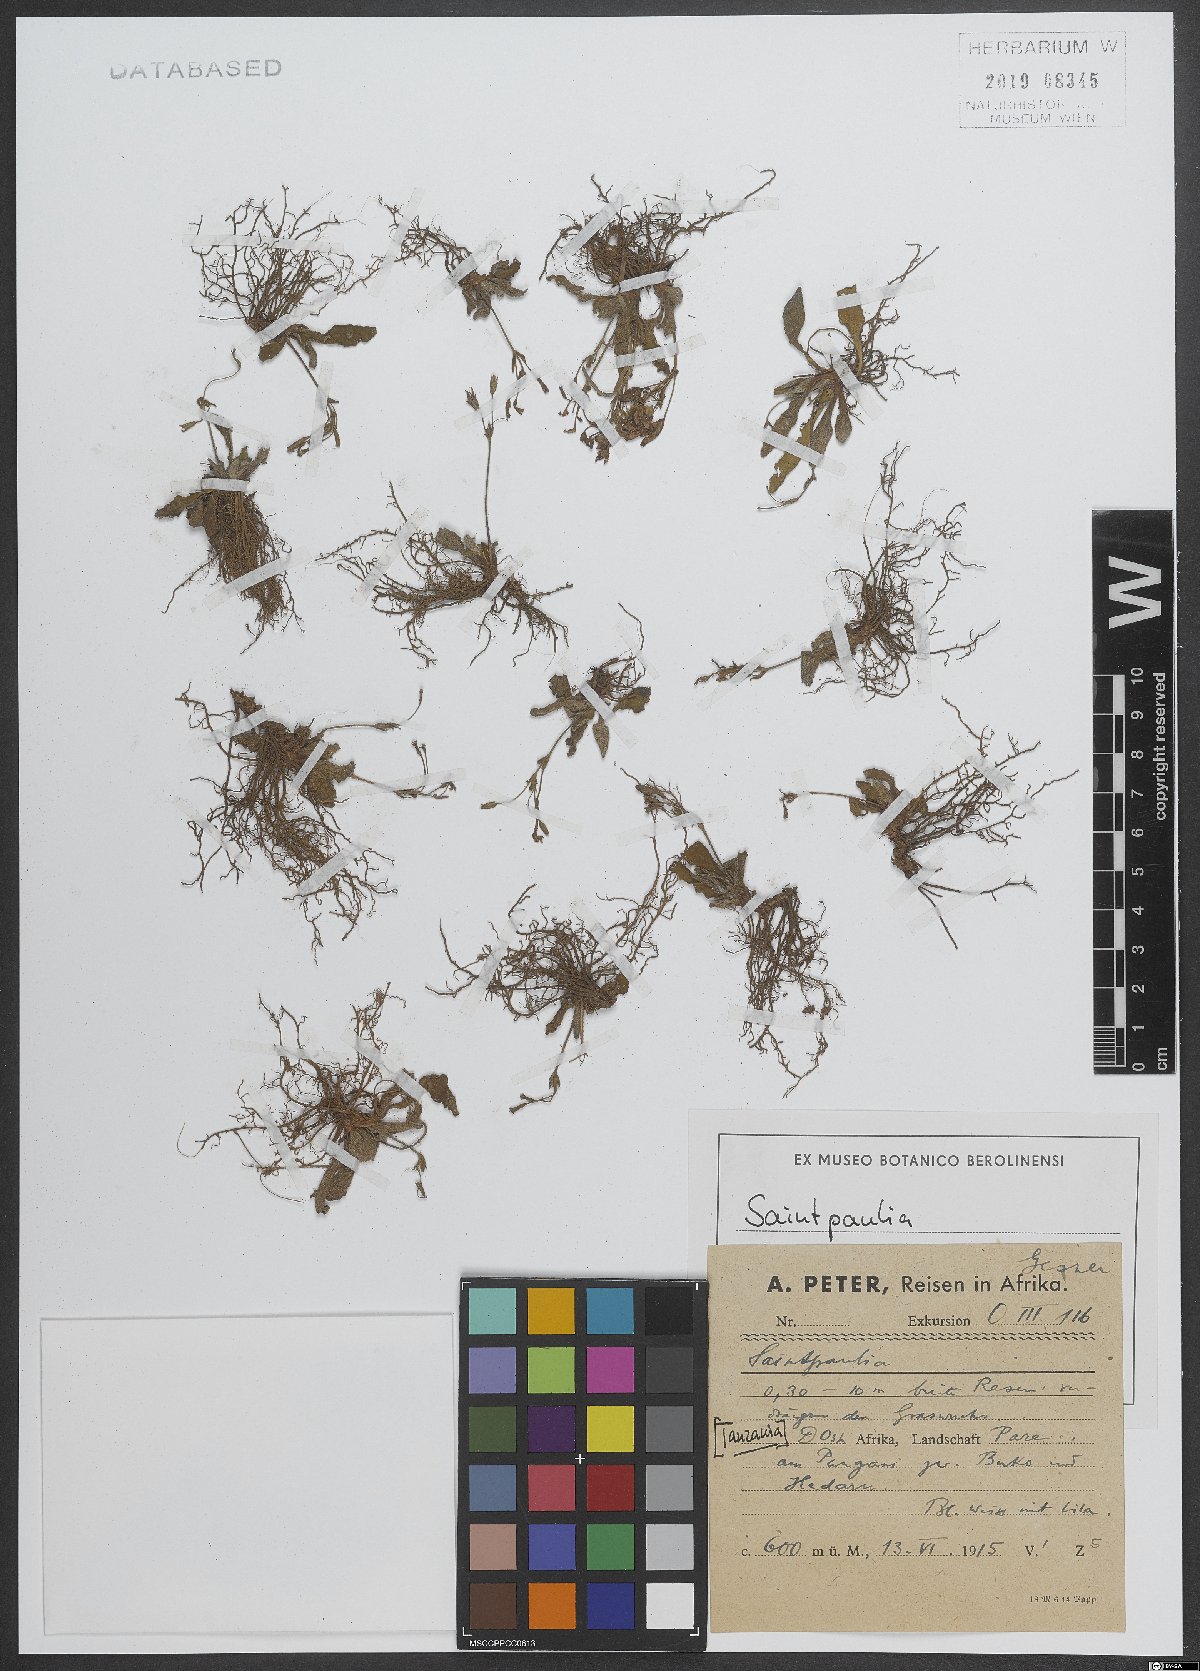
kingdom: Plantae
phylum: Tracheophyta
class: Magnoliopsida
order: Lamiales
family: Gesneriaceae
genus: Streptocarpus
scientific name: Streptocarpus
